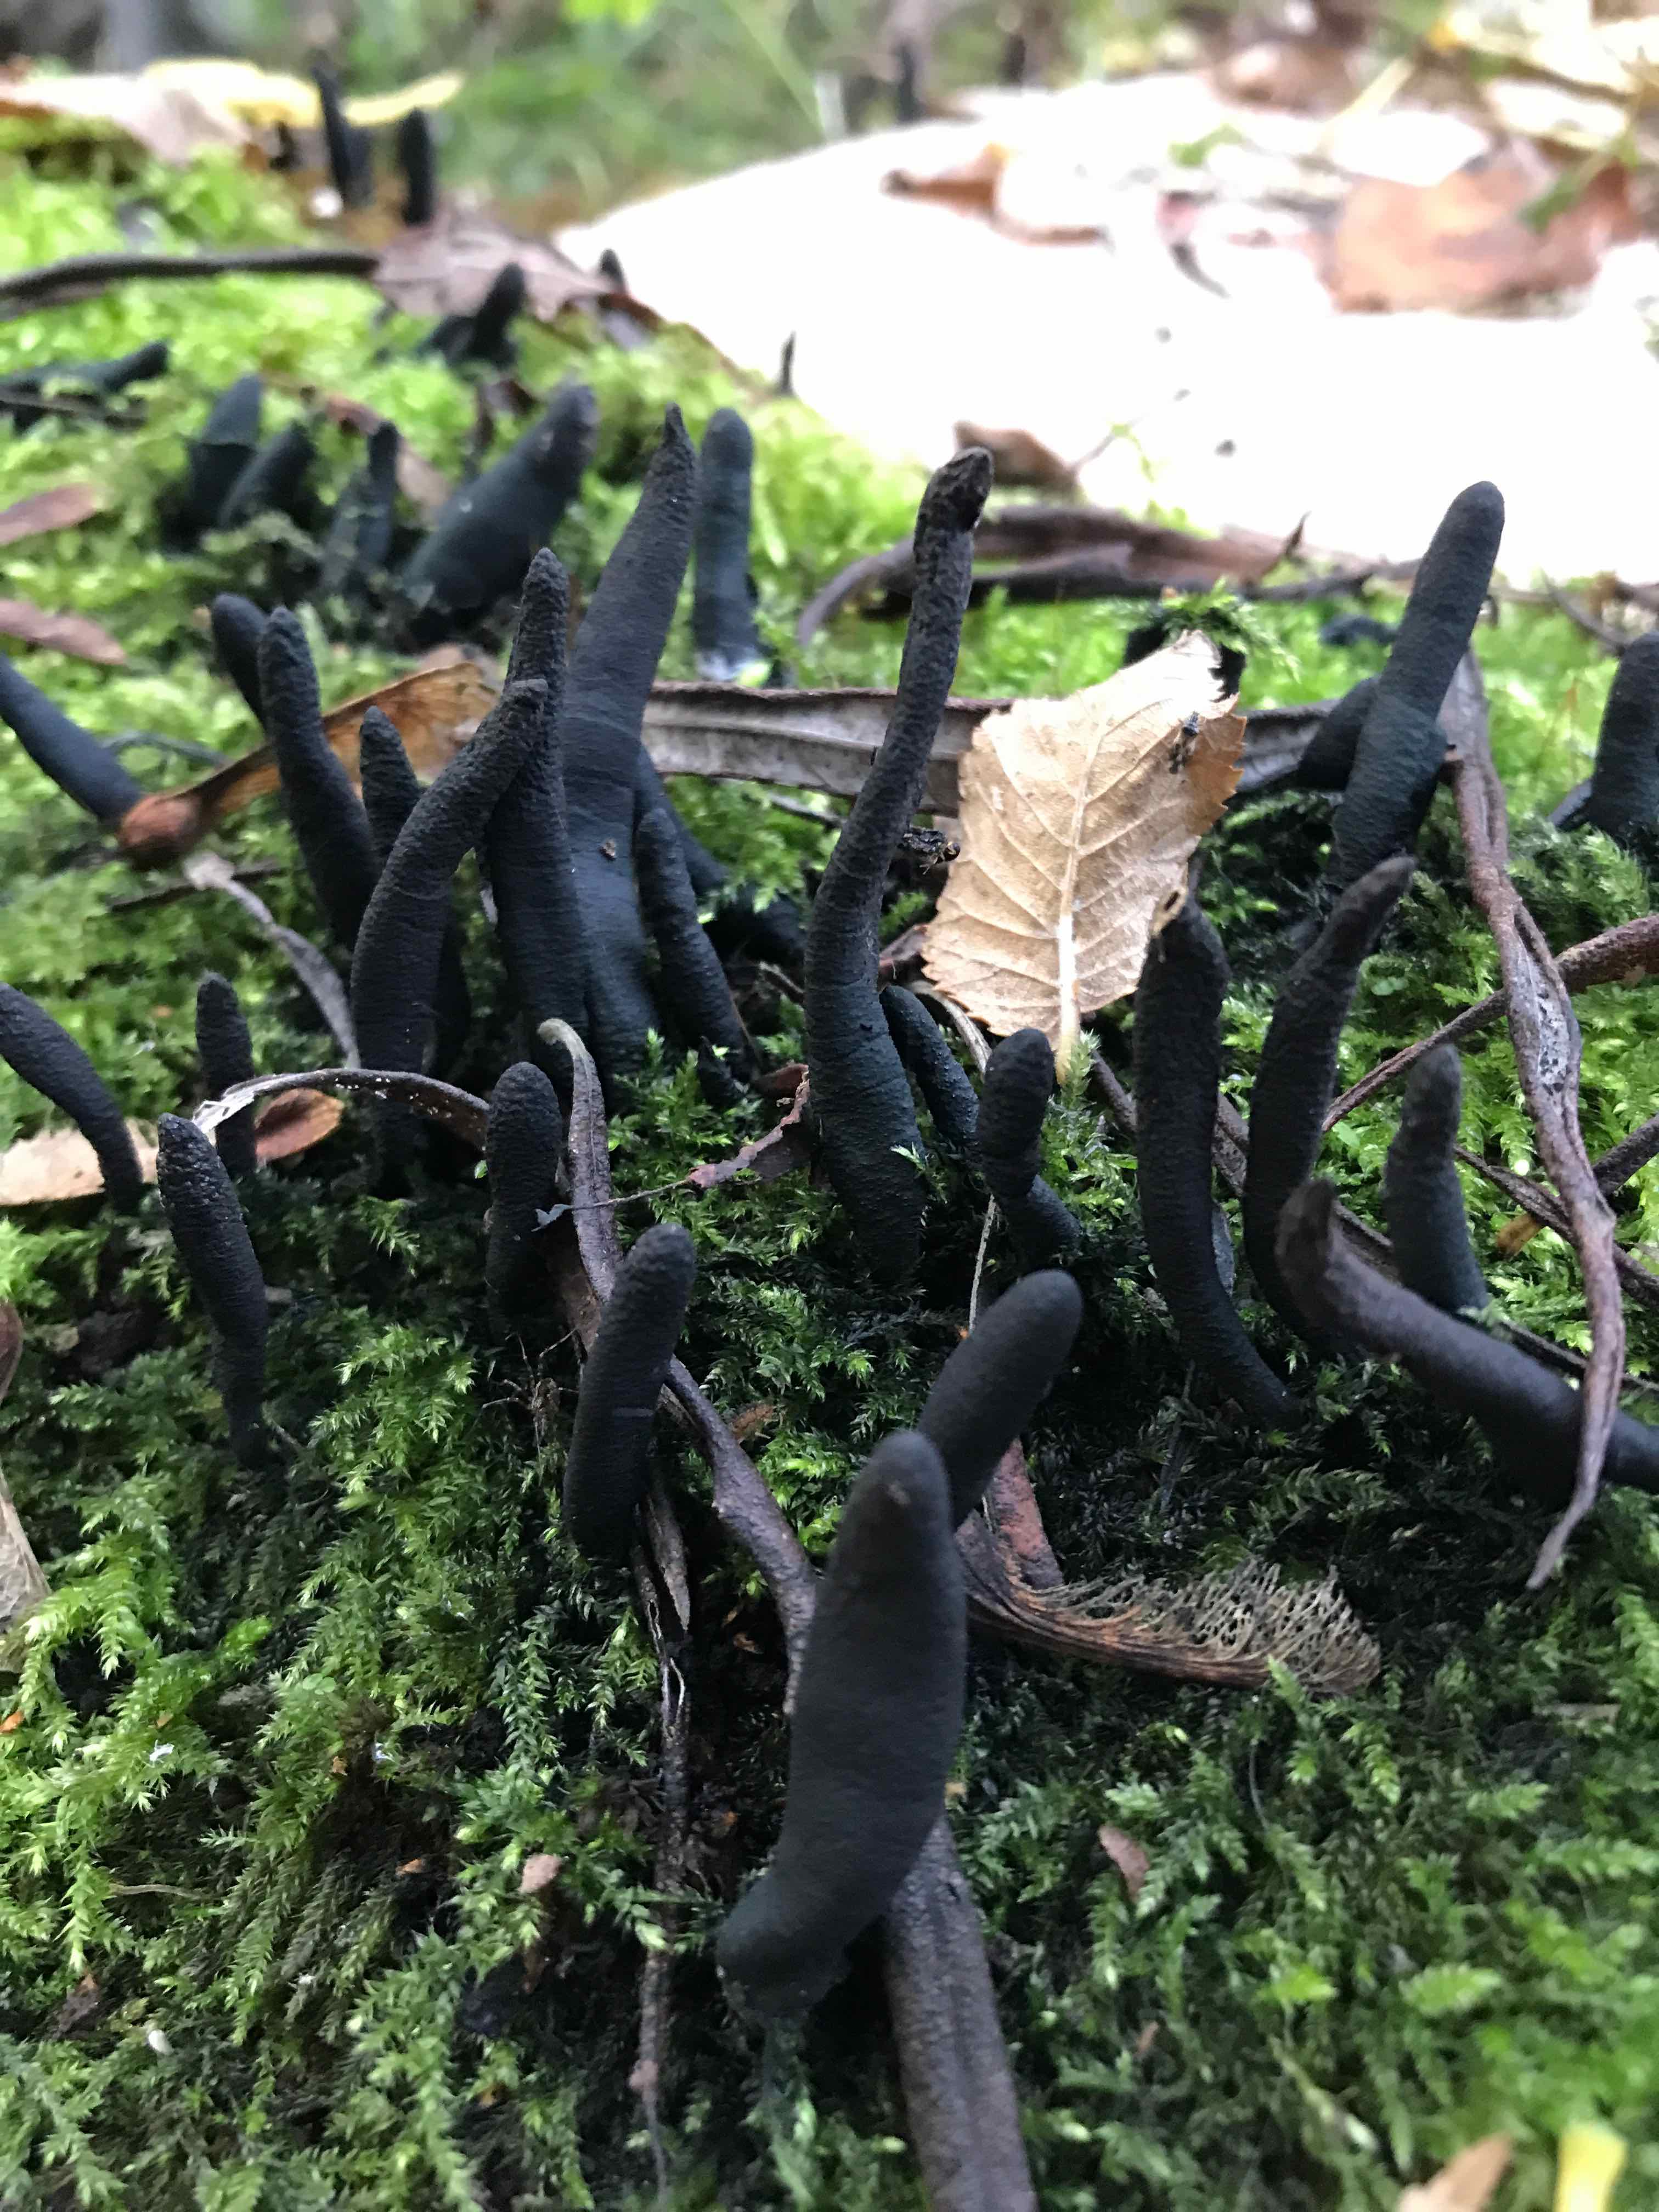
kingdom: Fungi
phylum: Ascomycota
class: Sordariomycetes
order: Xylariales
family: Xylariaceae
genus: Xylaria
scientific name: Xylaria longipes
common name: slank stødsvamp
